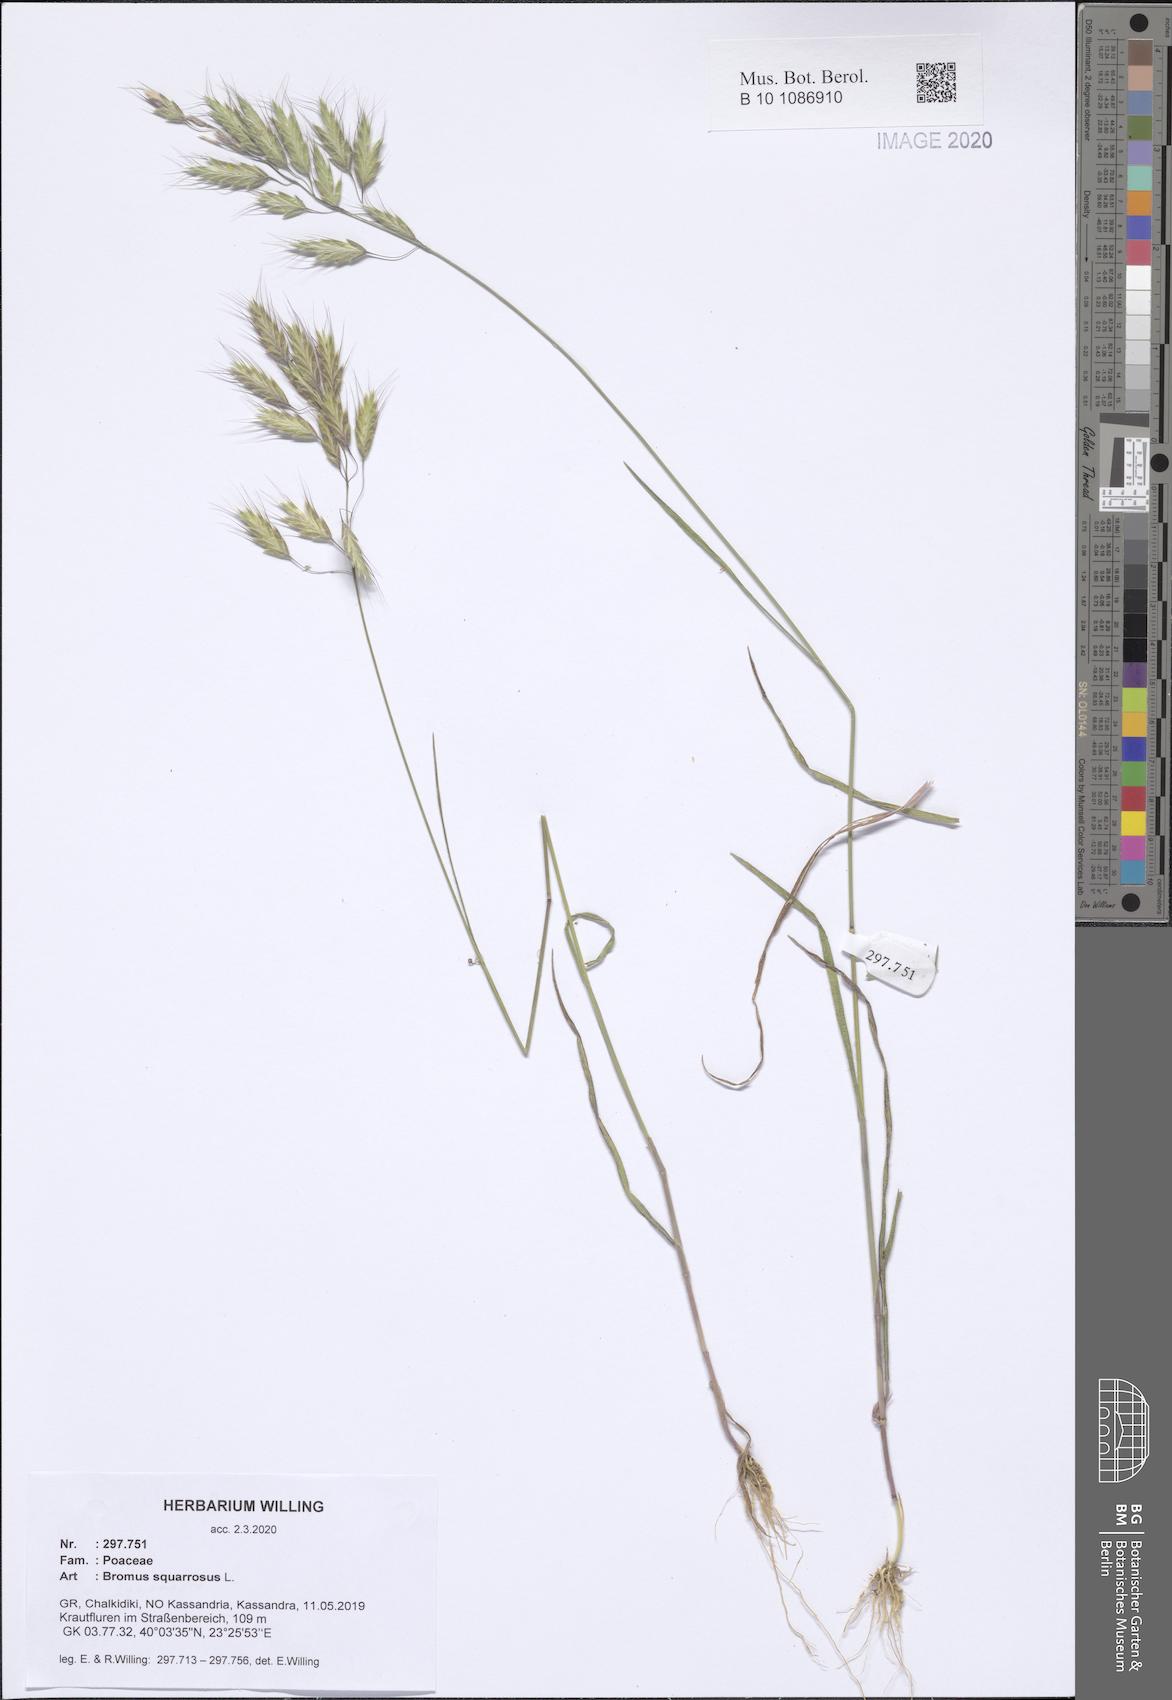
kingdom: Plantae
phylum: Tracheophyta
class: Liliopsida
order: Poales
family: Poaceae
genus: Bromus
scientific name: Bromus squarrosus
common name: Corn brome
